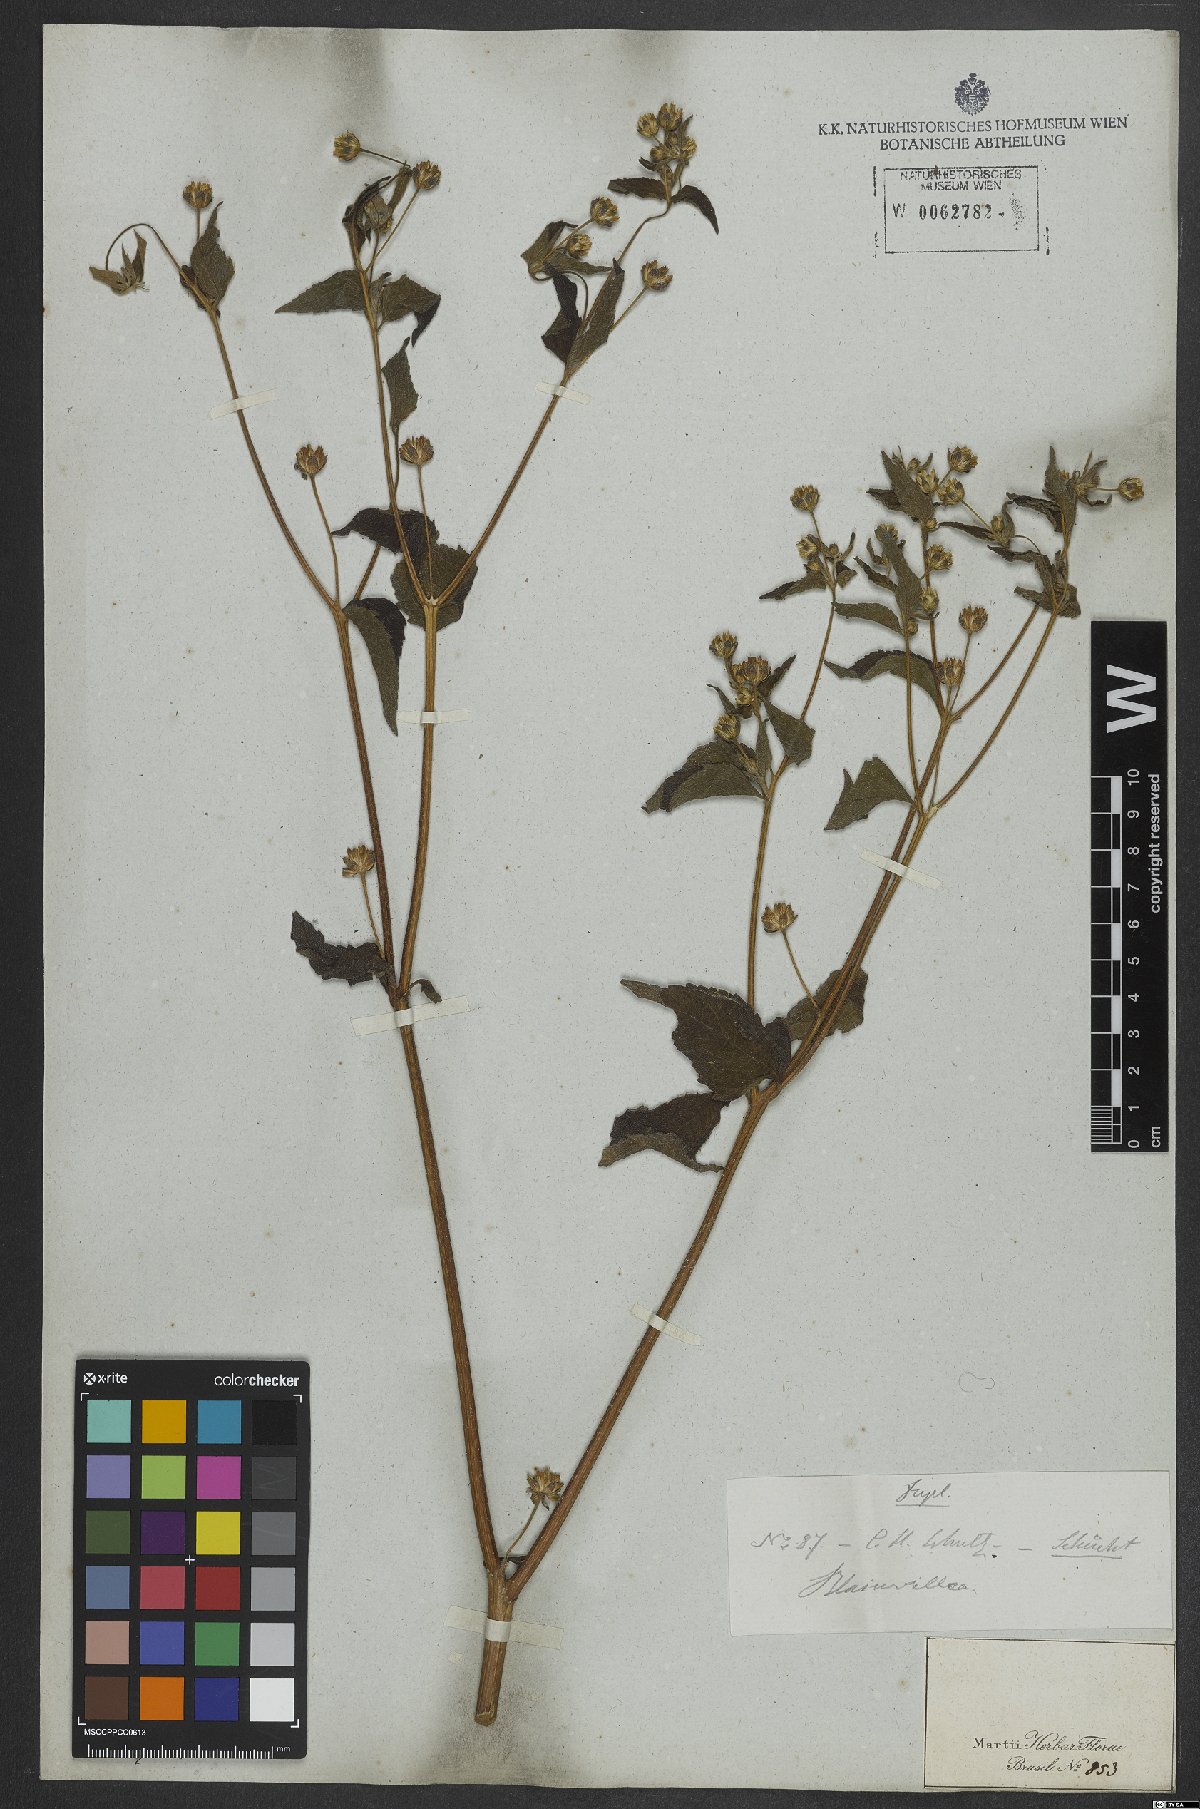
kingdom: Plantae
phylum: Tracheophyta
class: Magnoliopsida
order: Asterales
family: Asteraceae
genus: Blainvillea
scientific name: Blainvillea dichotoma
